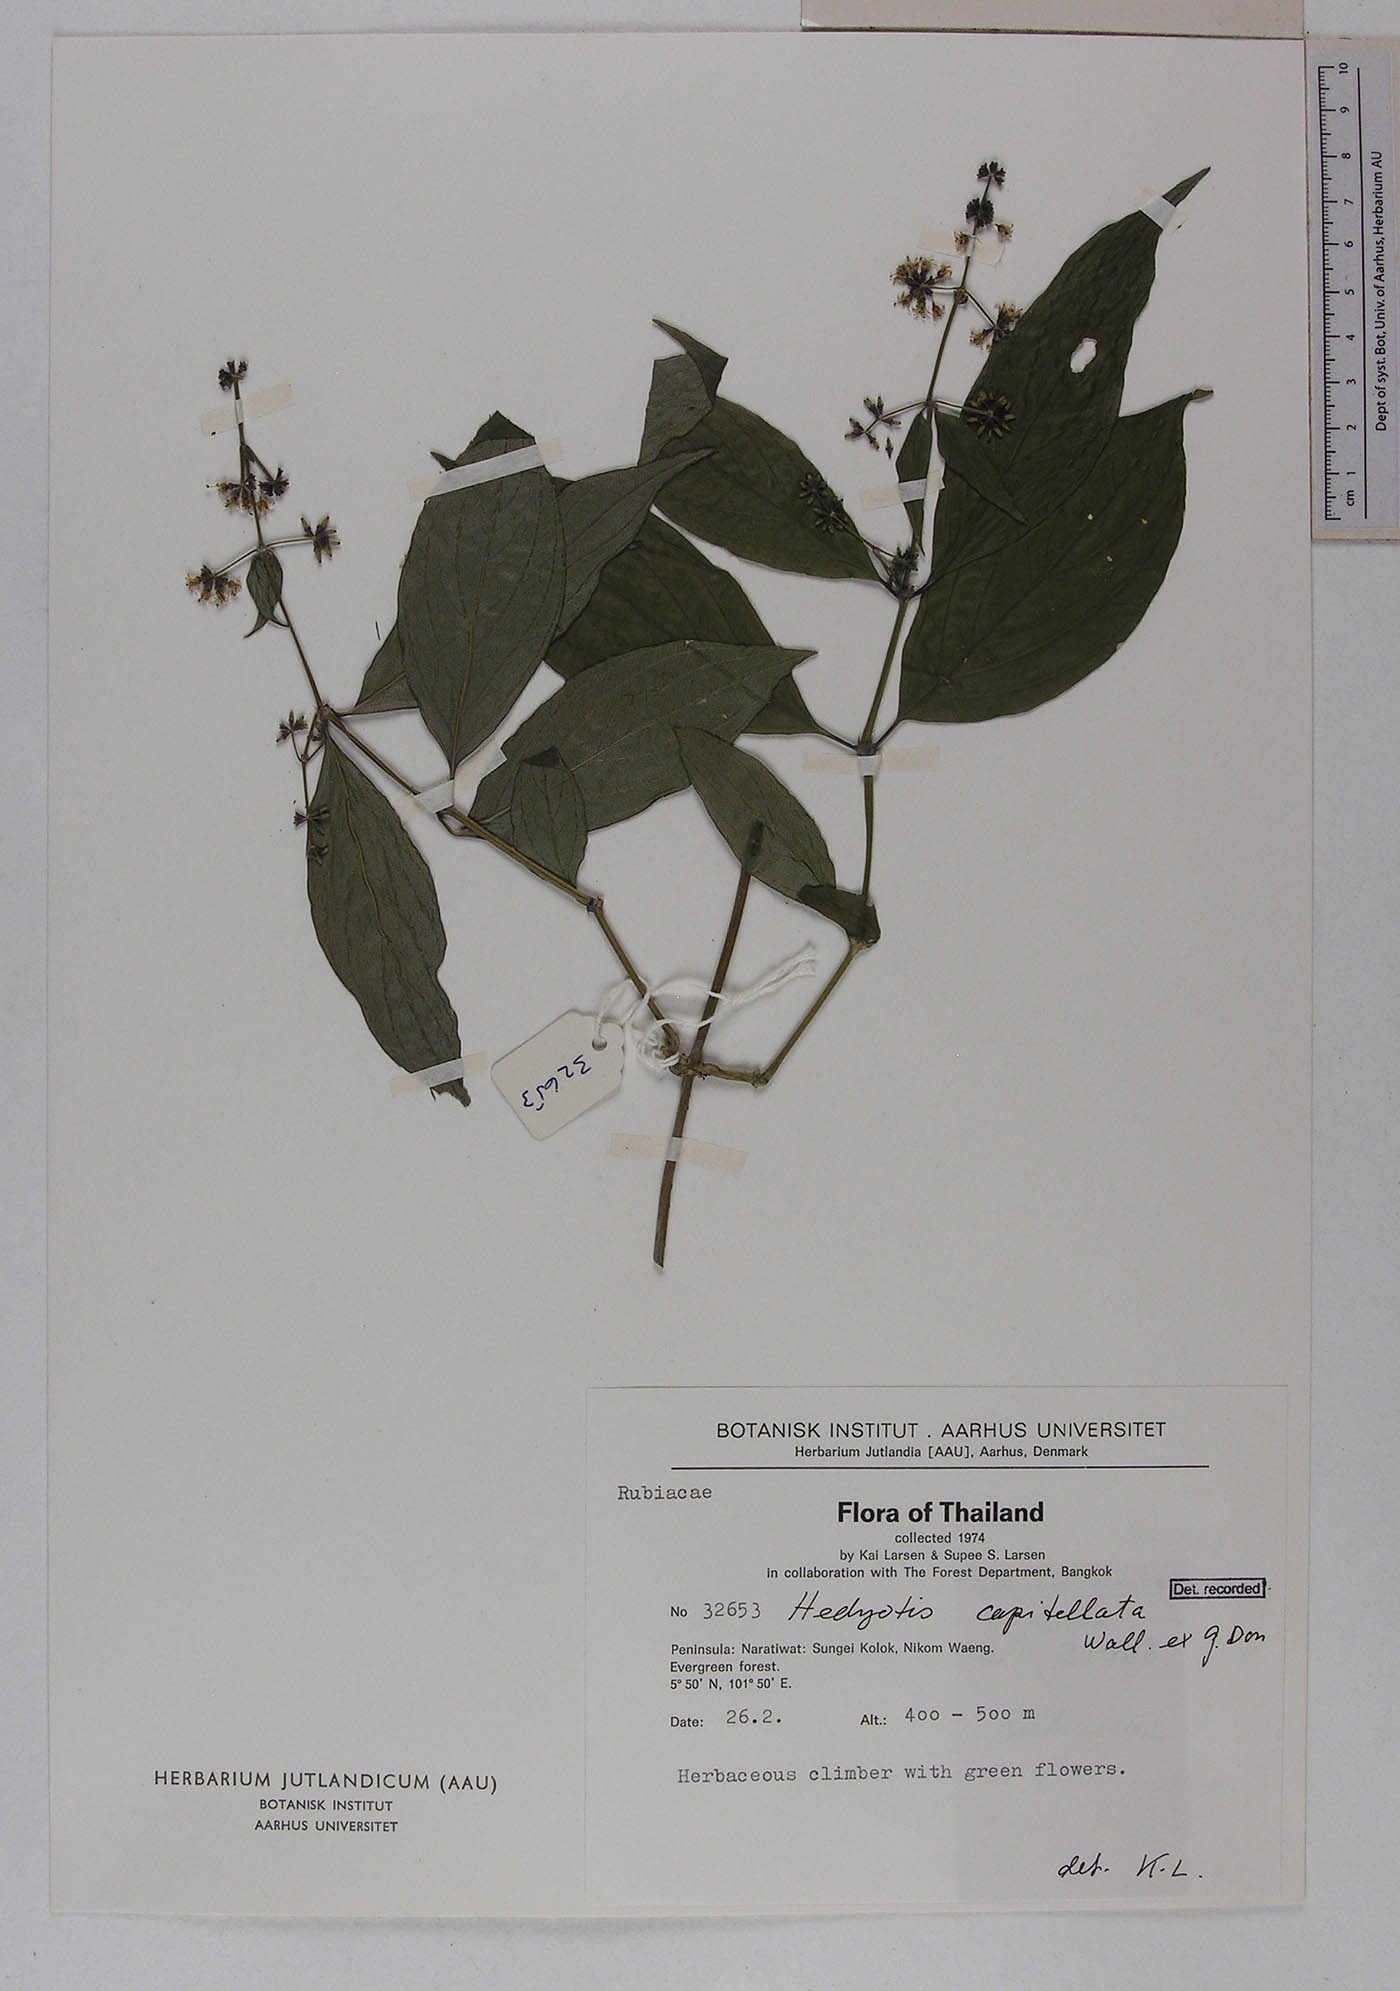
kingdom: Plantae
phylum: Tracheophyta
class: Magnoliopsida
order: Gentianales
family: Rubiaceae
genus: Hedyotis
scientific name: Hedyotis capitellata
